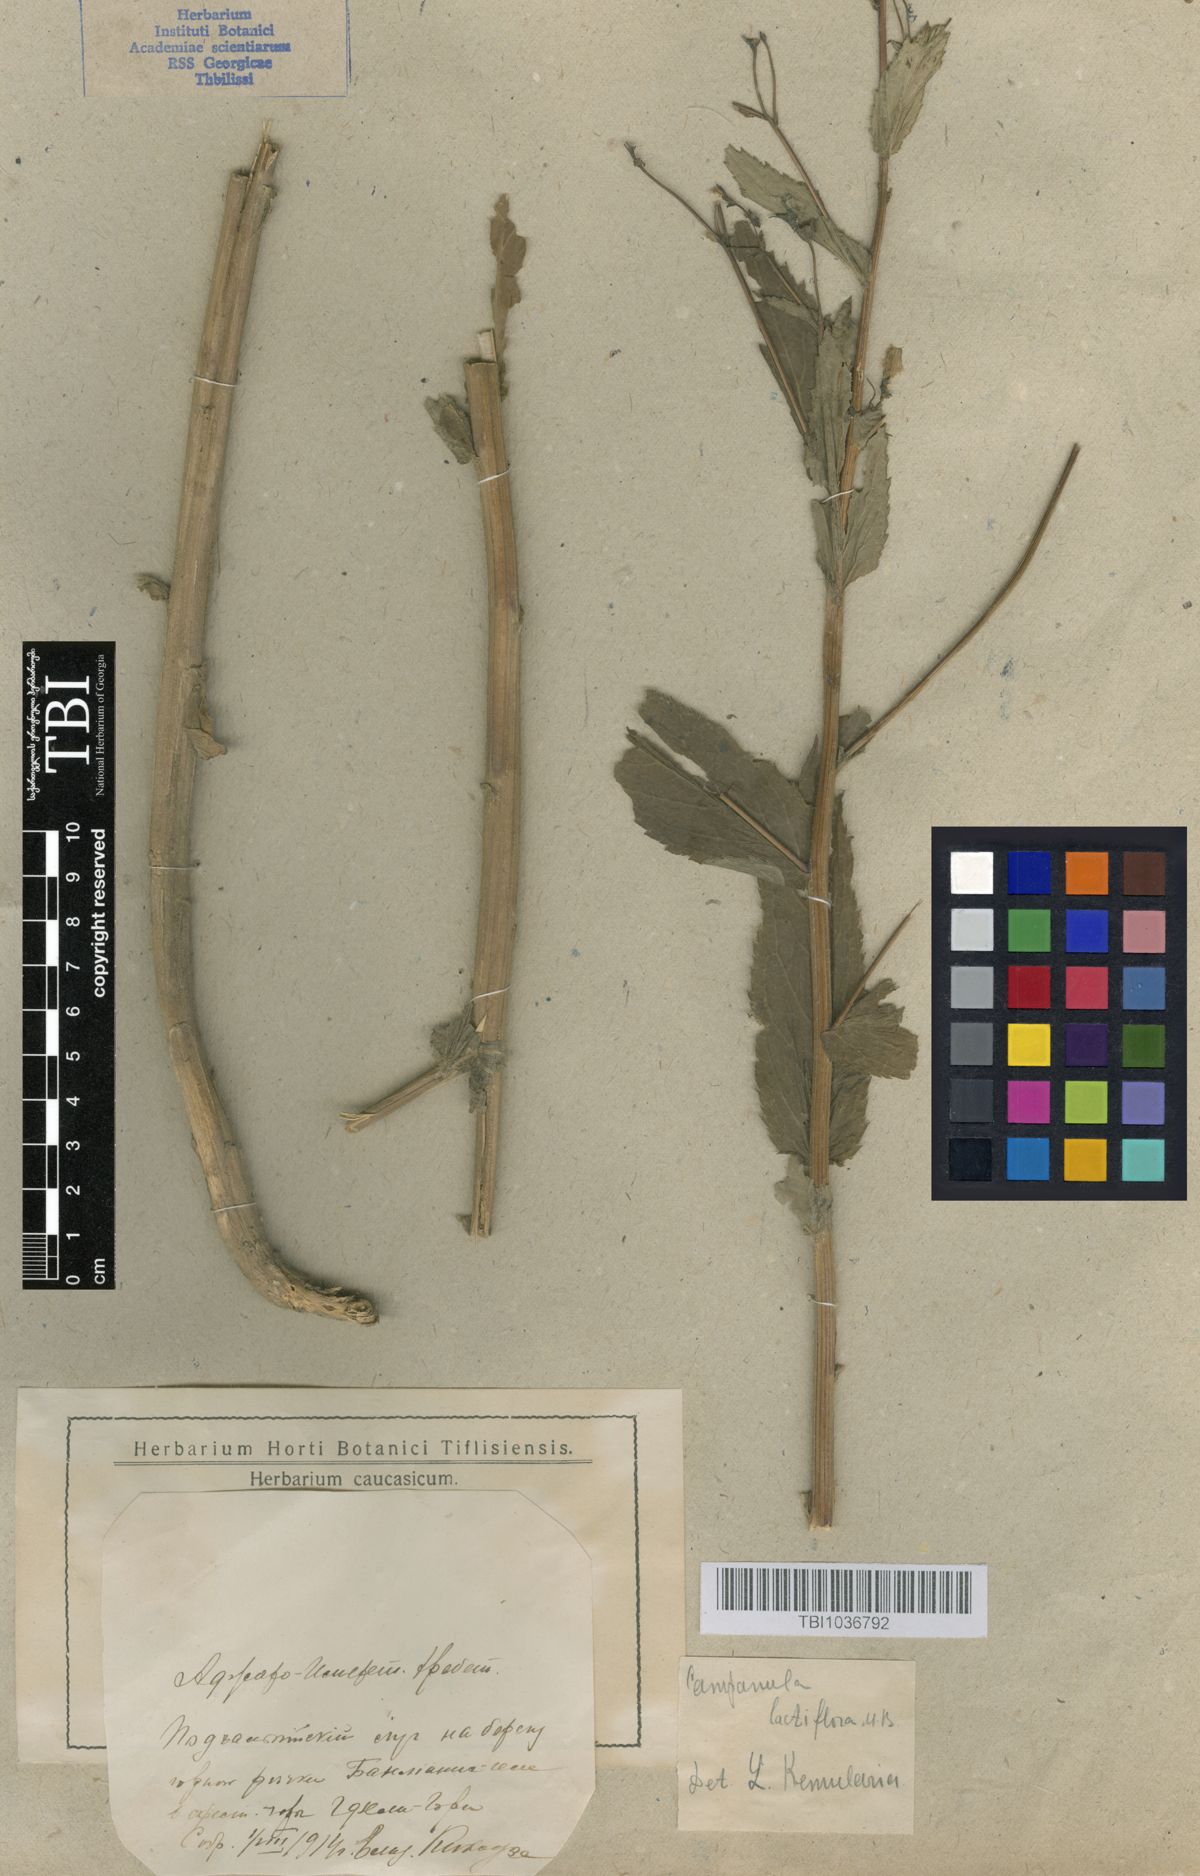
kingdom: Plantae
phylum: Tracheophyta
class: Magnoliopsida
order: Asterales
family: Campanulaceae
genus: Campanula
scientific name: Campanula lactiflora
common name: Milky bellflower
